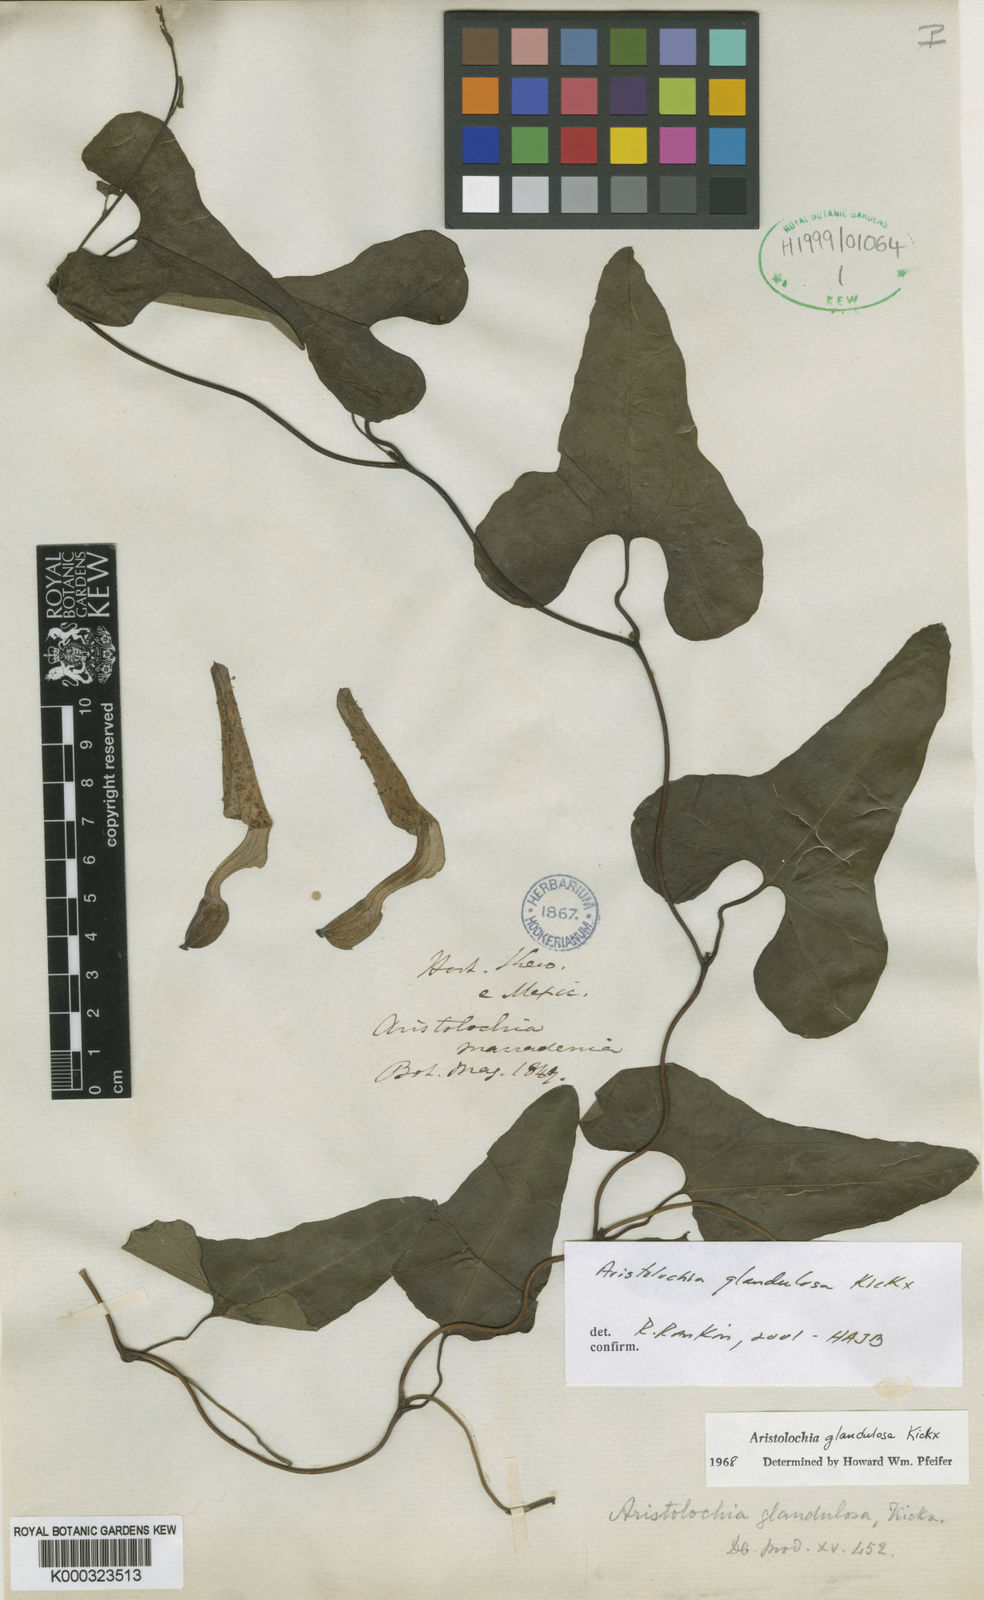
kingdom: Plantae
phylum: Tracheophyta
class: Magnoliopsida
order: Piperales
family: Aristolochiaceae
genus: Aristolochia
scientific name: Aristolochia
